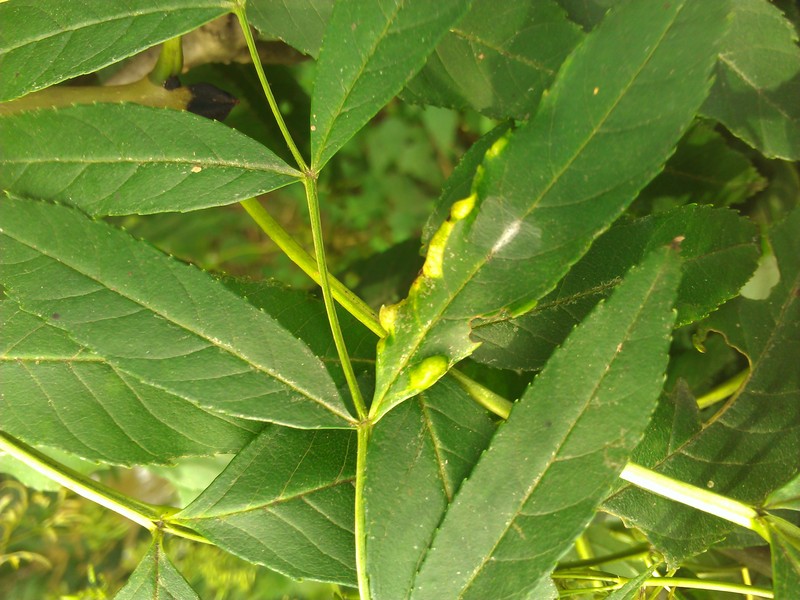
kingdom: Animalia
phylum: Arthropoda
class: Insecta
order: Hemiptera
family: Liviidae
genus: Psyllopsis
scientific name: Psyllopsis fraxini
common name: Jumping plant louse
